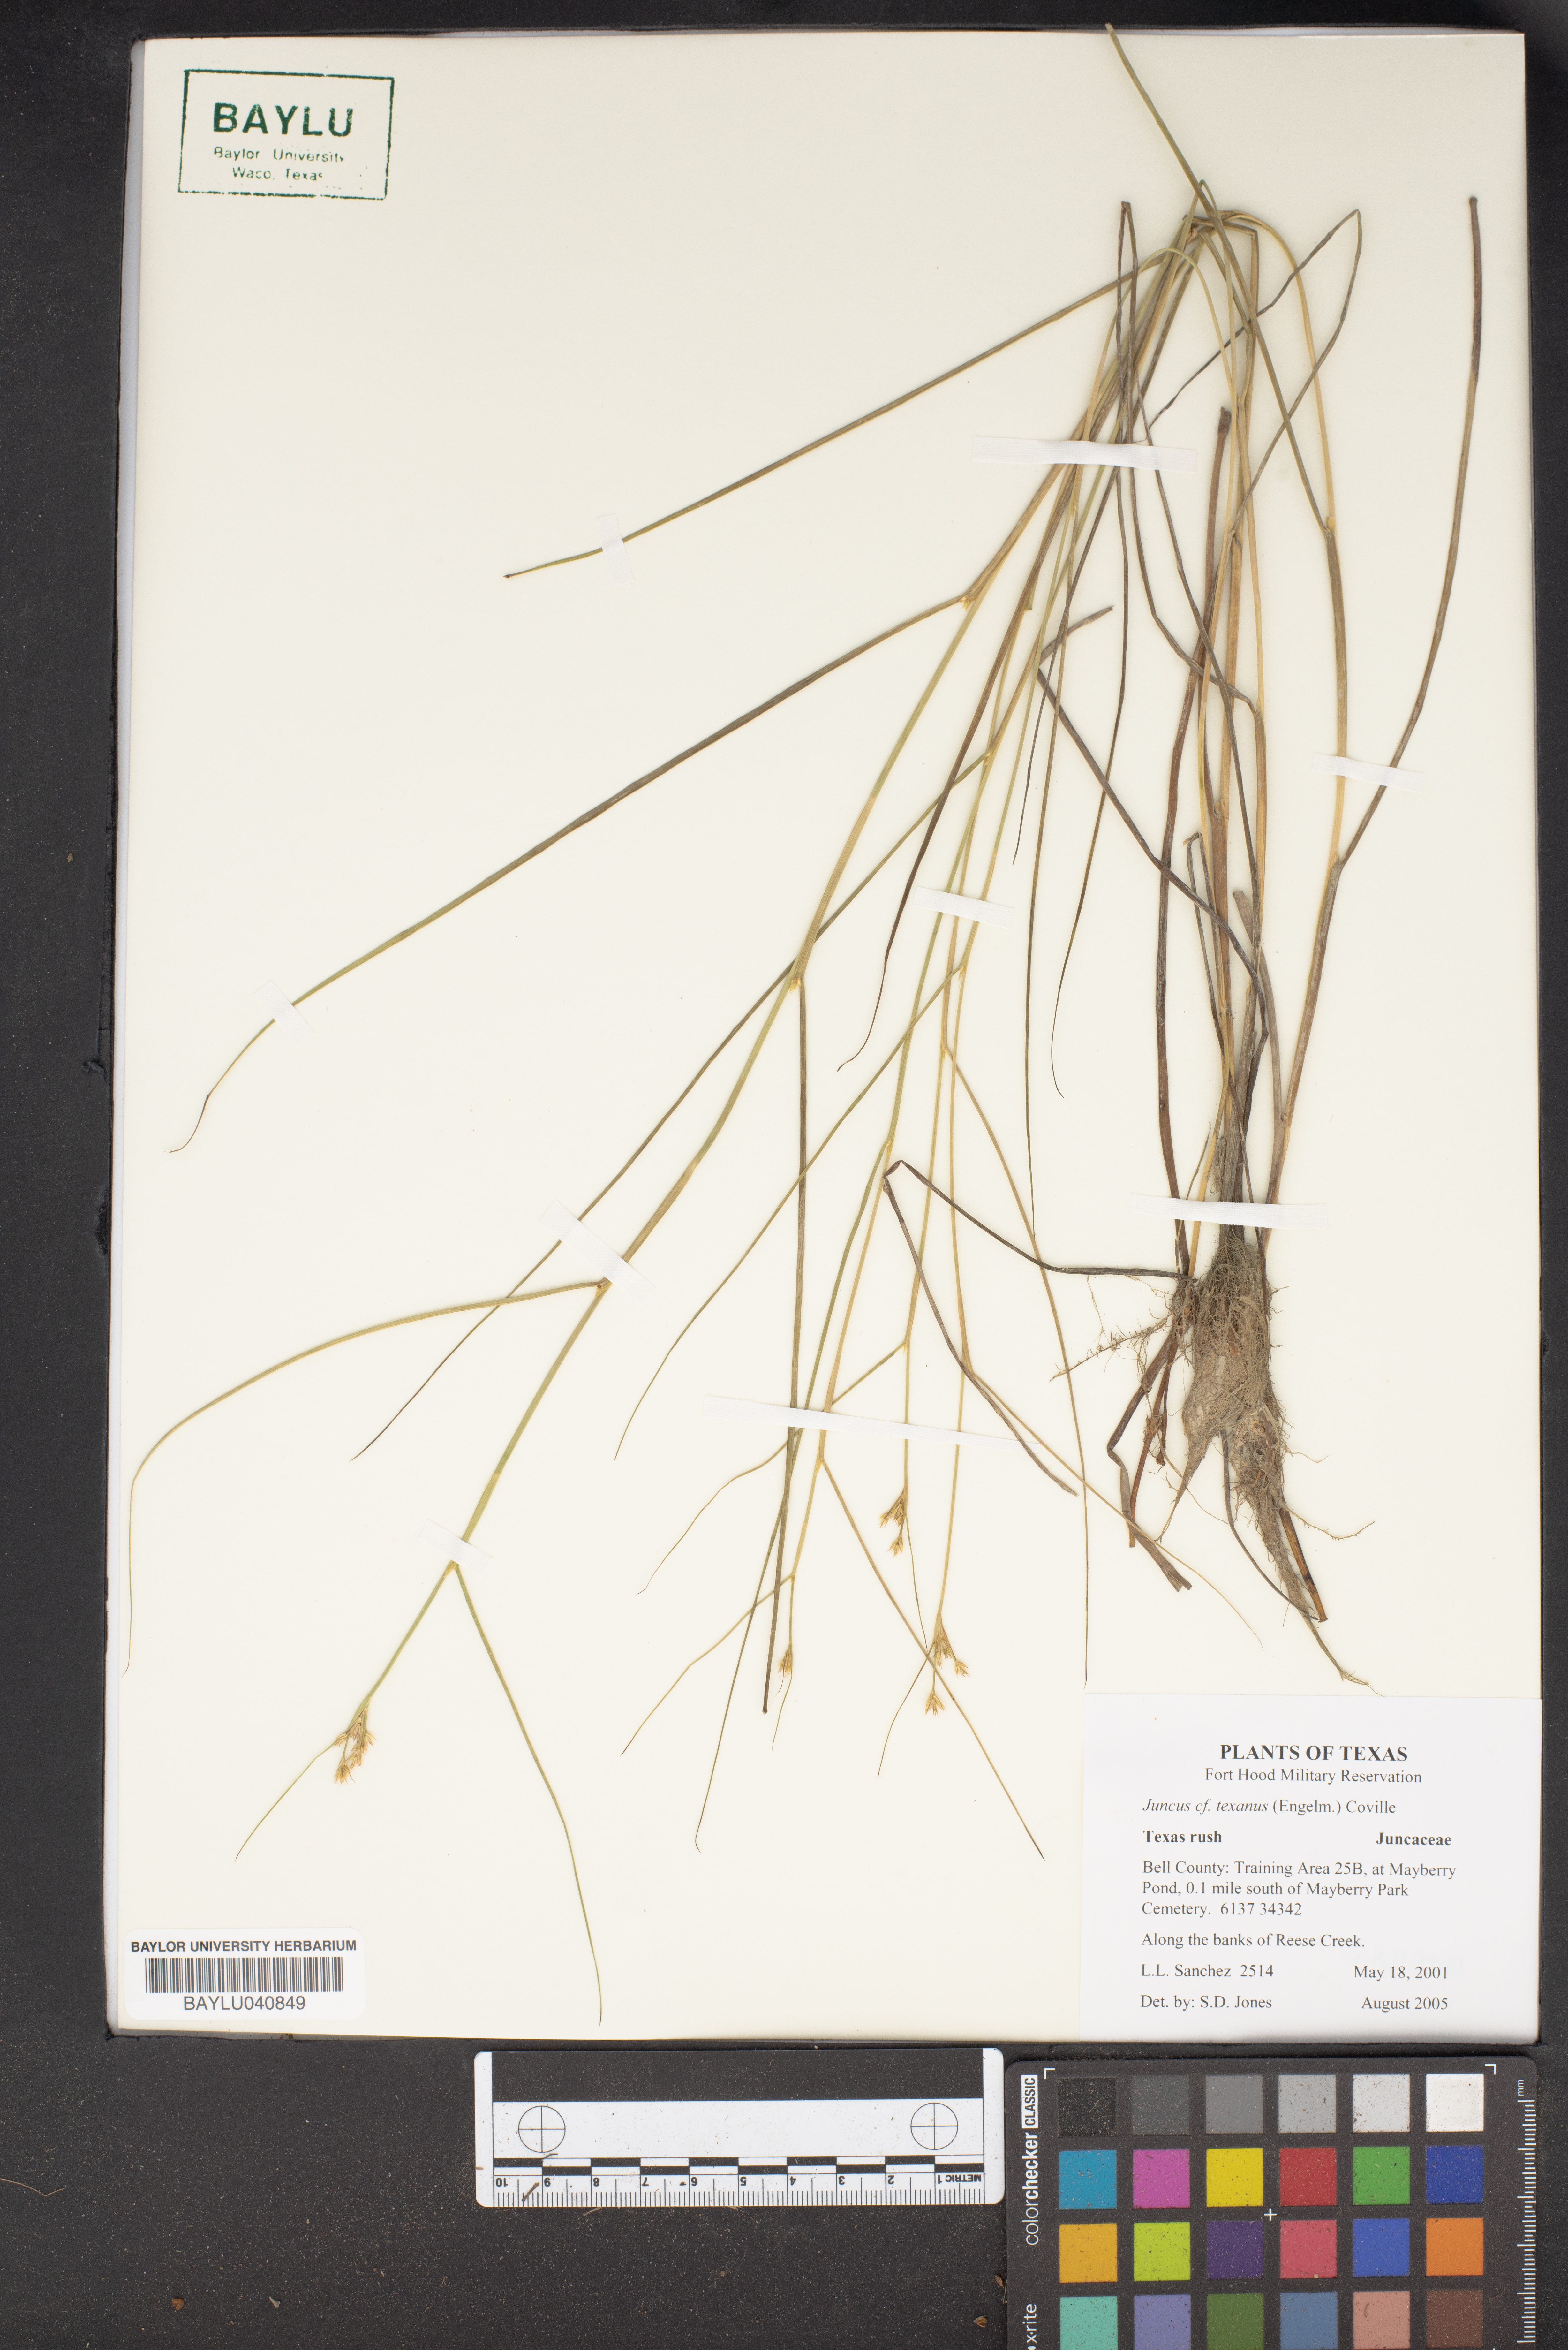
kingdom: Plantae
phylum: Tracheophyta
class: Liliopsida
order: Poales
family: Juncaceae
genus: Juncus
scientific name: Juncus texanus
